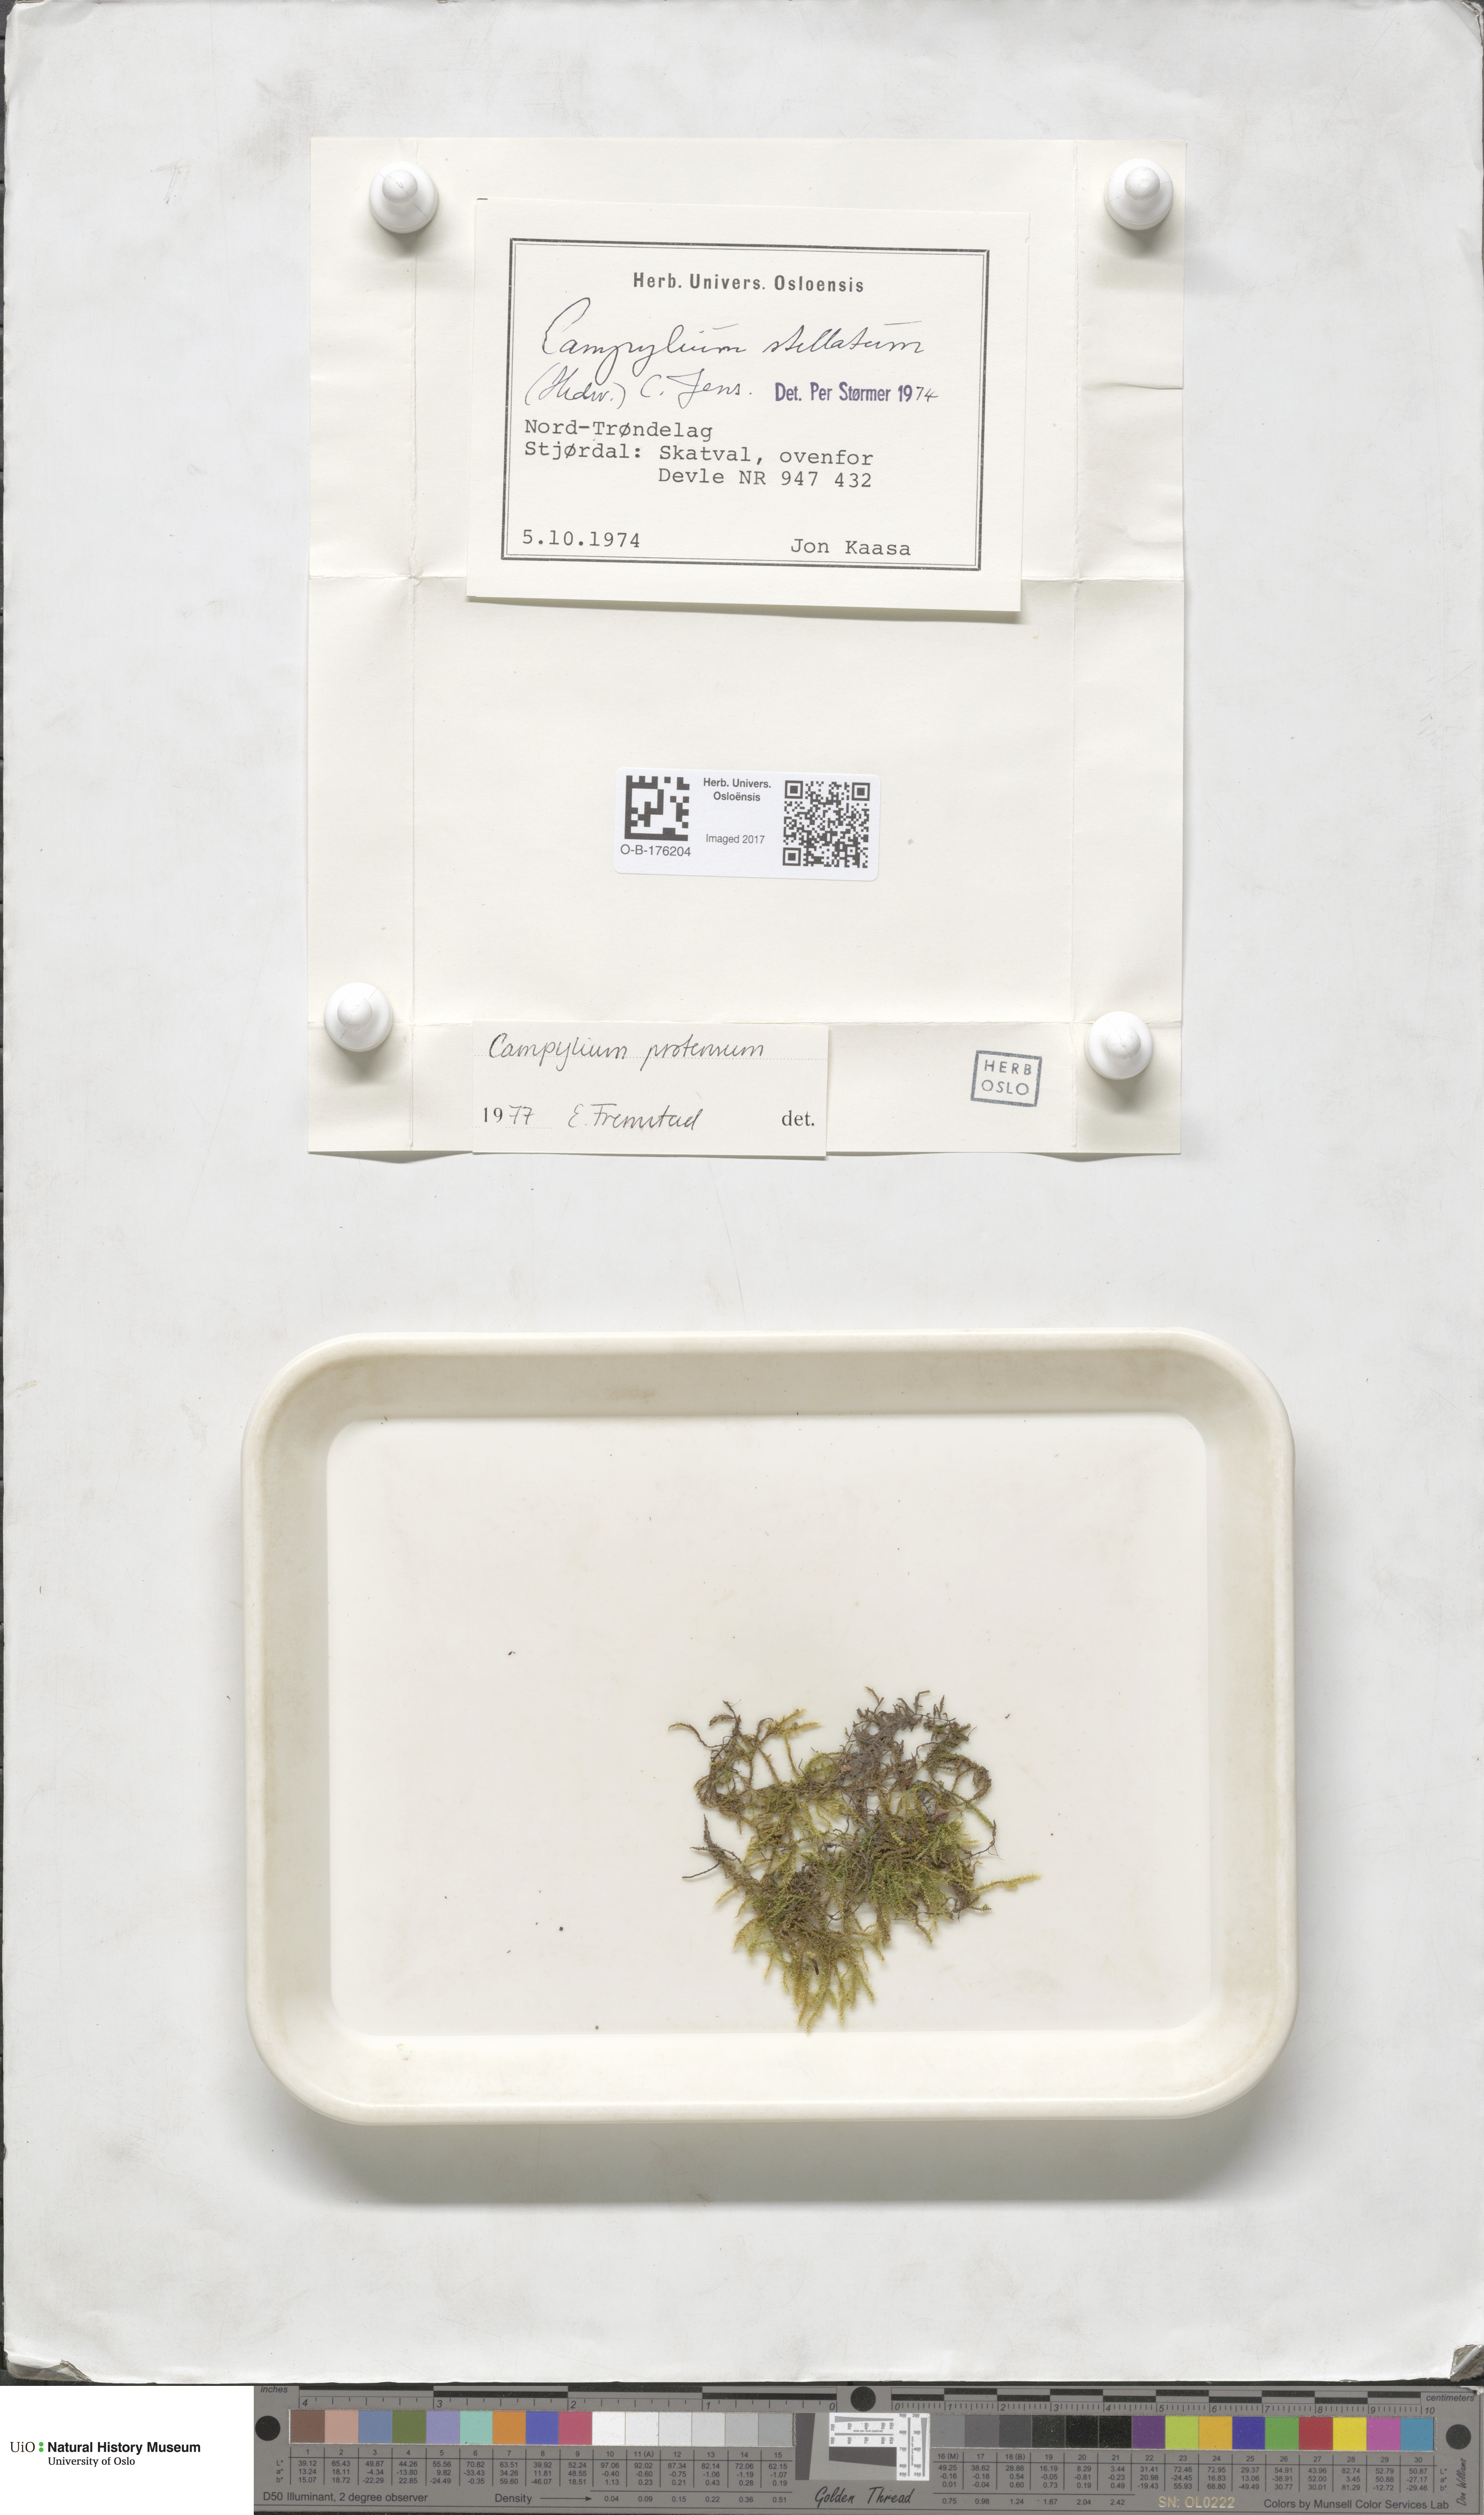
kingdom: Plantae
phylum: Bryophyta
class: Bryopsida
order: Hypnales
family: Amblystegiaceae
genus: Campylium
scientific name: Campylium stellatum
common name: Yellow starry fen moss
